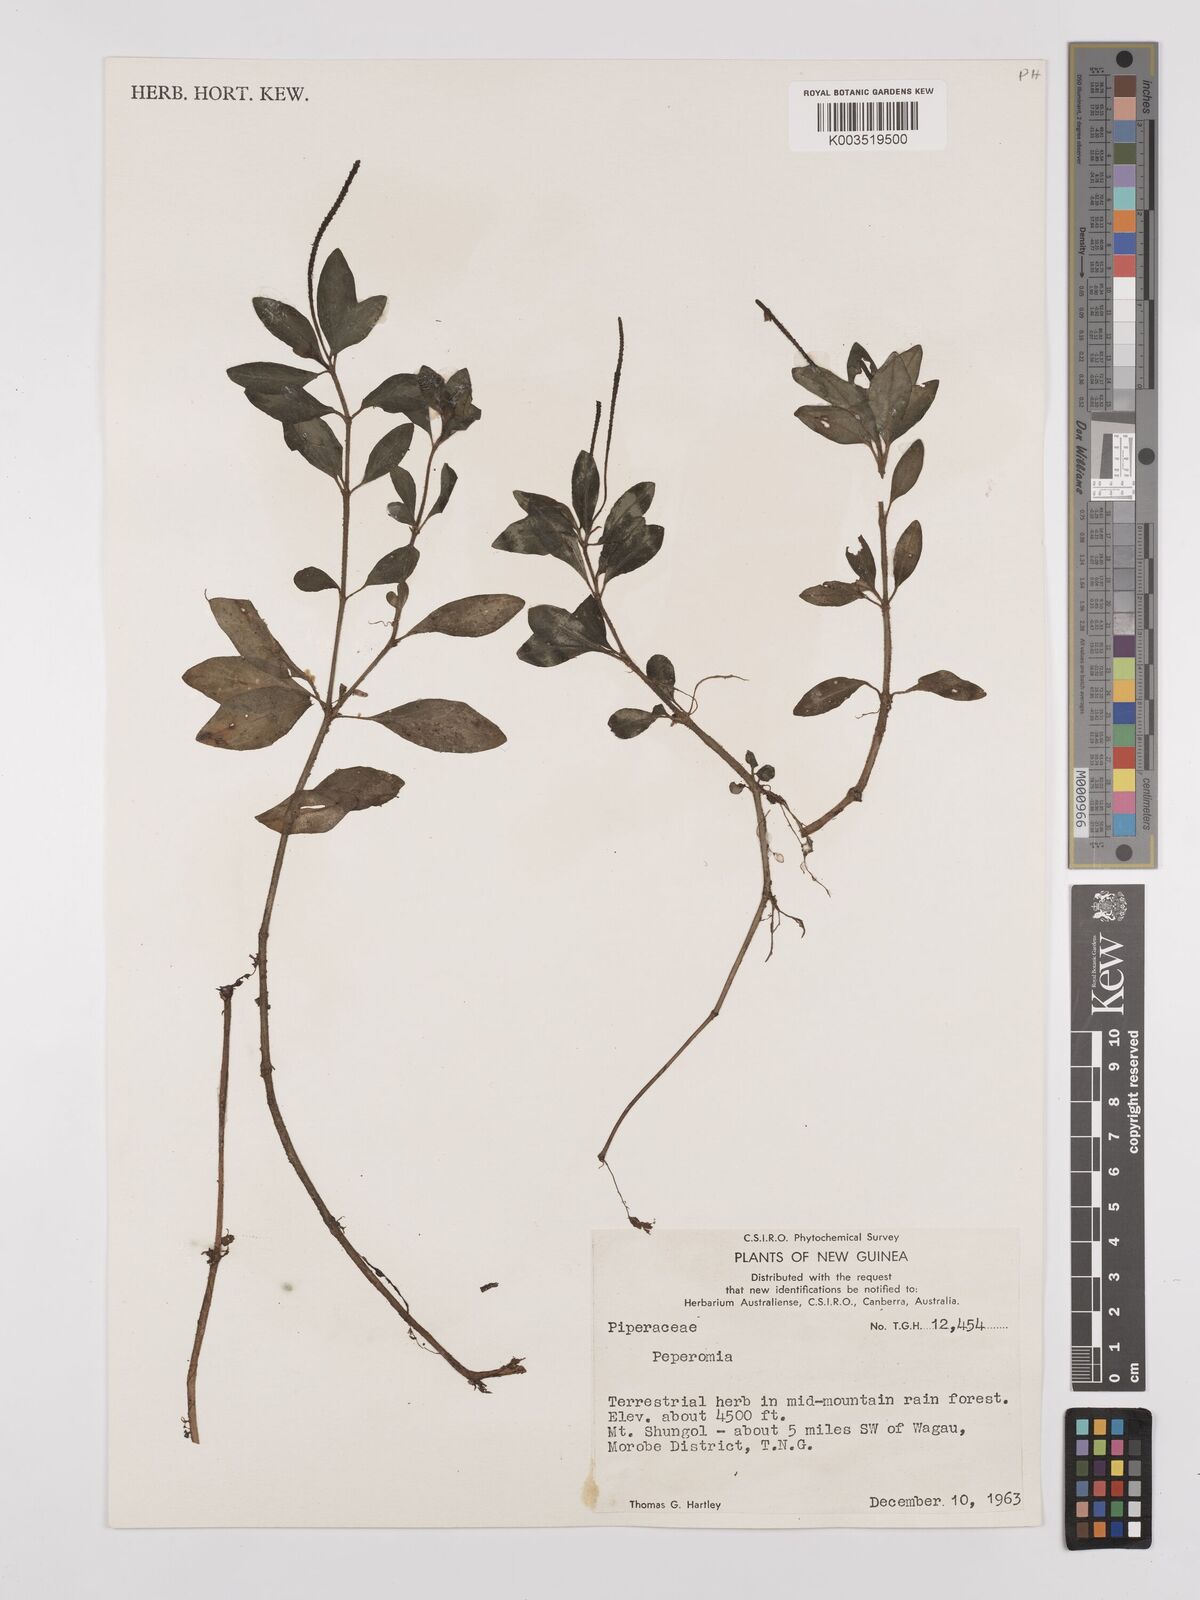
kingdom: Plantae
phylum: Tracheophyta
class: Magnoliopsida
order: Piperales
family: Piperaceae
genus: Peperomia
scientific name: Peperomia
